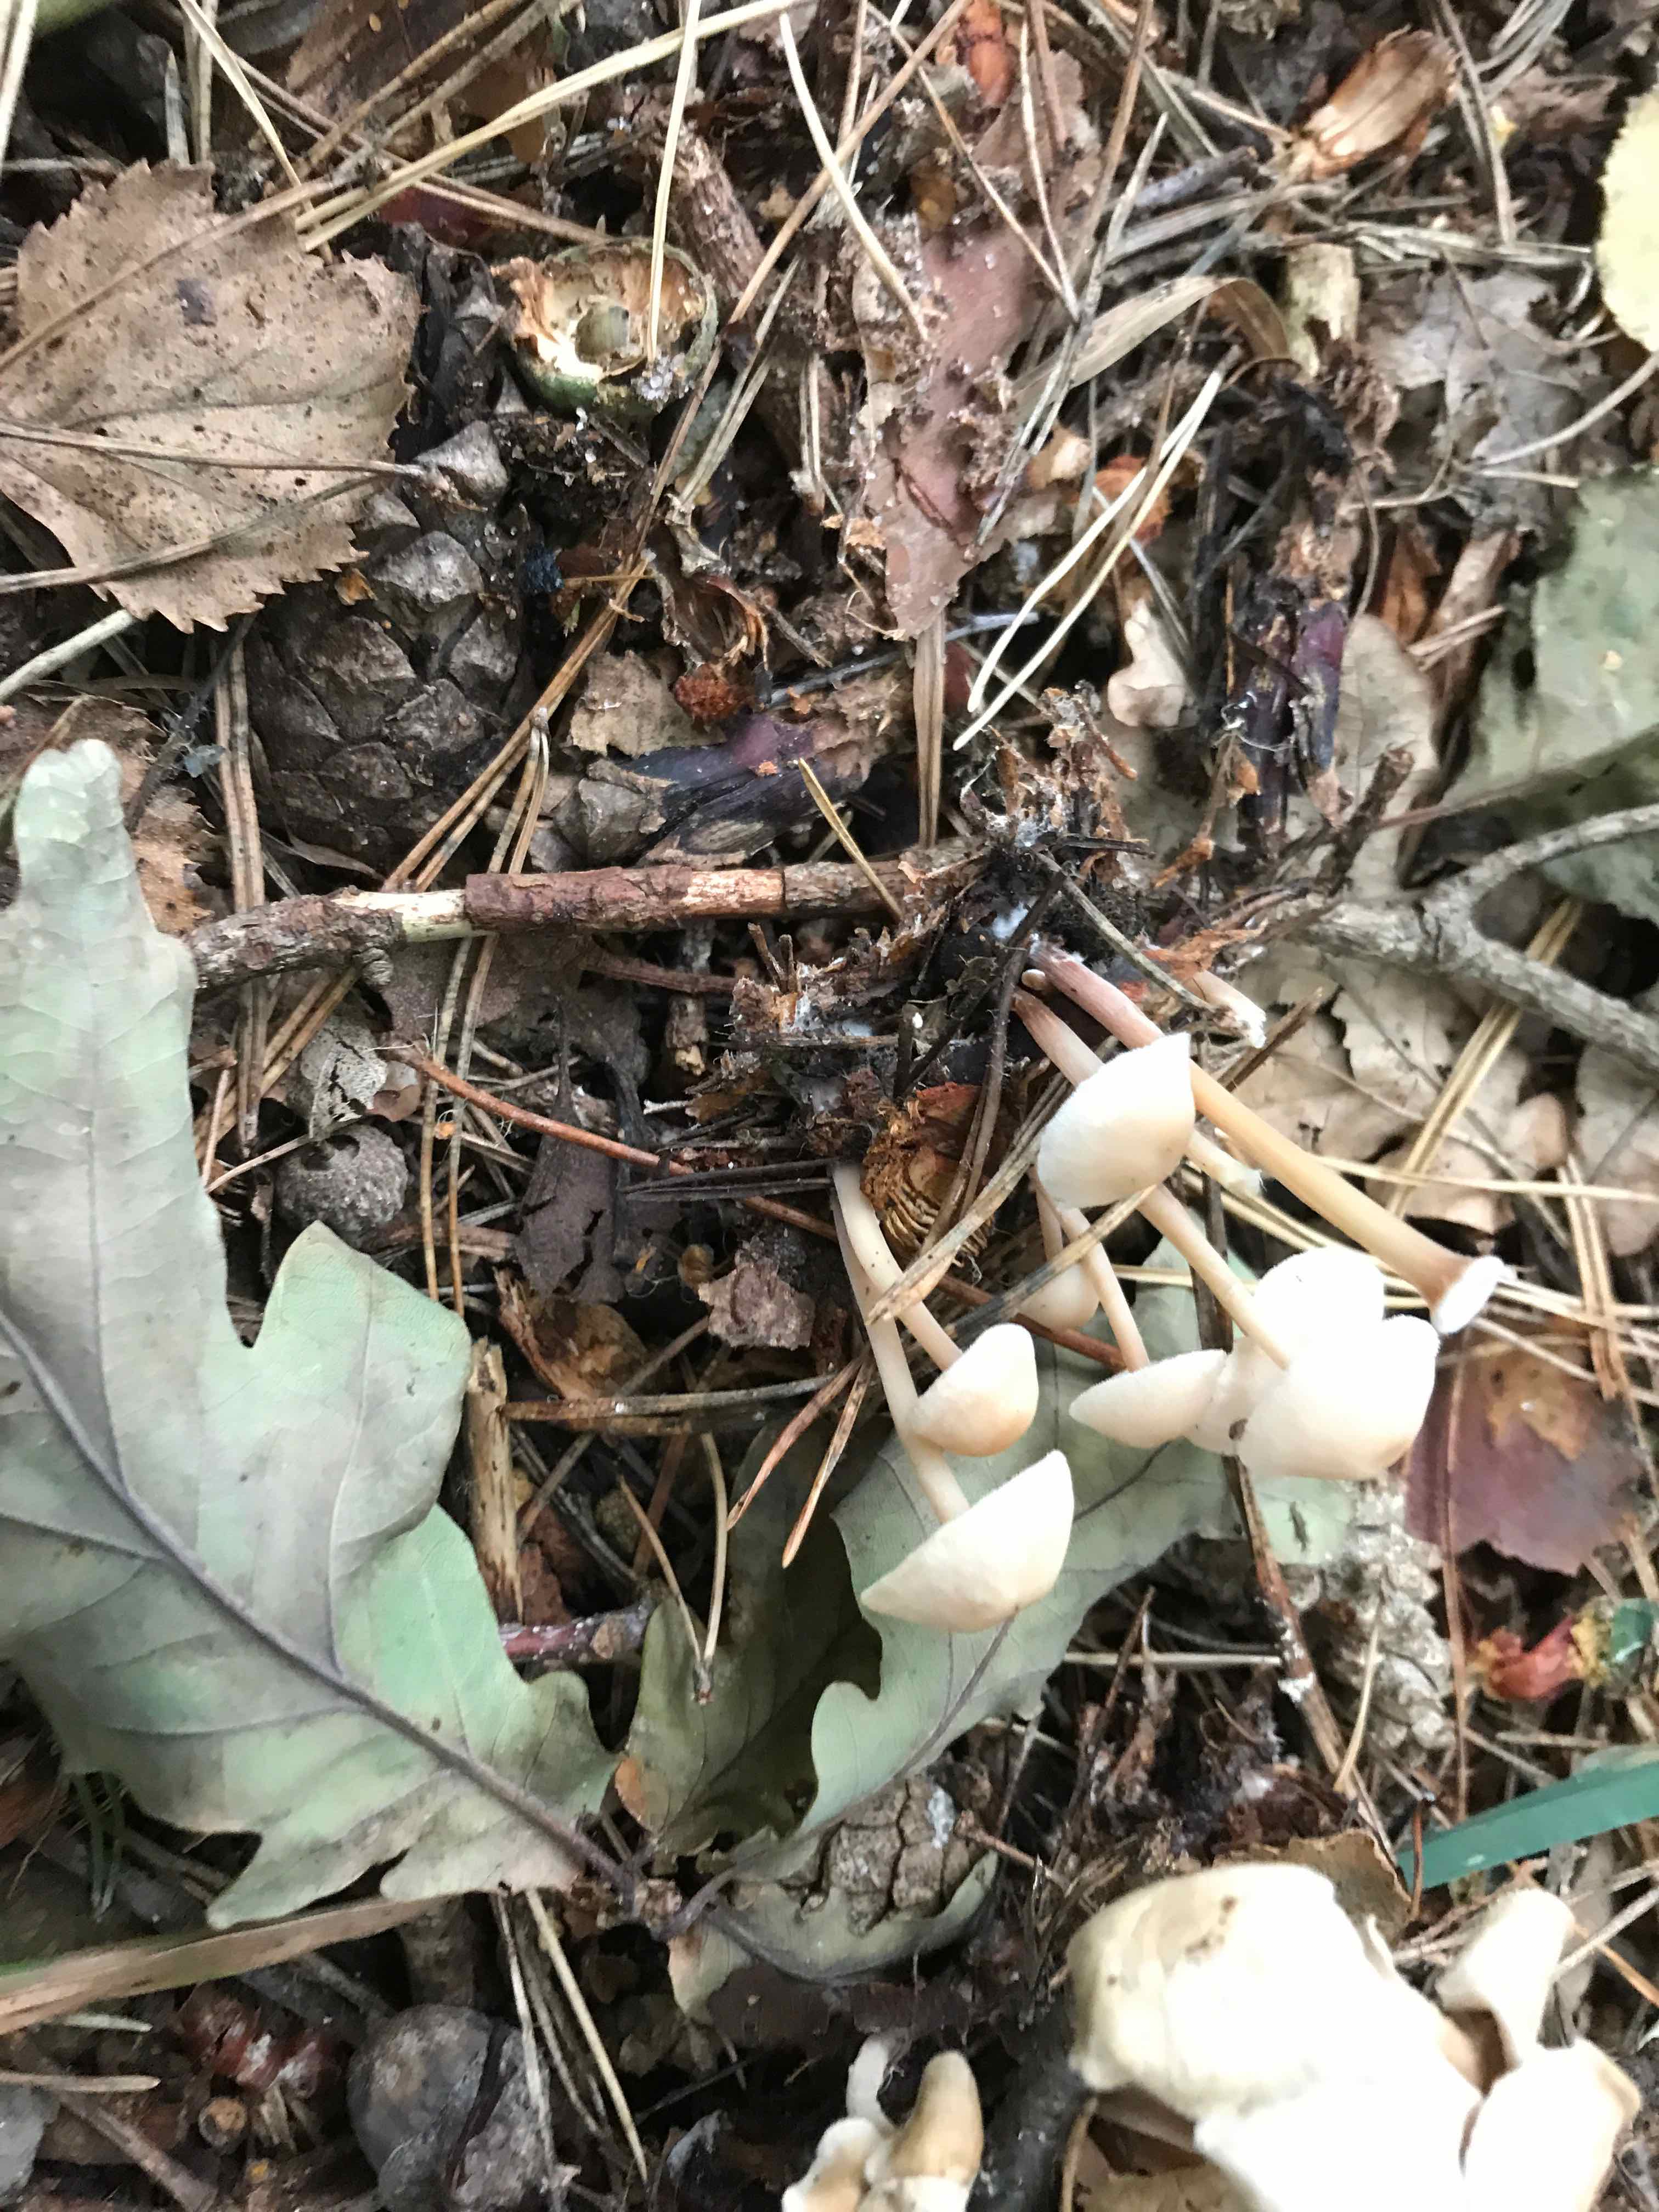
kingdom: Fungi
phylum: Basidiomycota
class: Agaricomycetes
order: Agaricales
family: Omphalotaceae
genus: Collybiopsis
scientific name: Collybiopsis confluens
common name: knippe-fladhat
